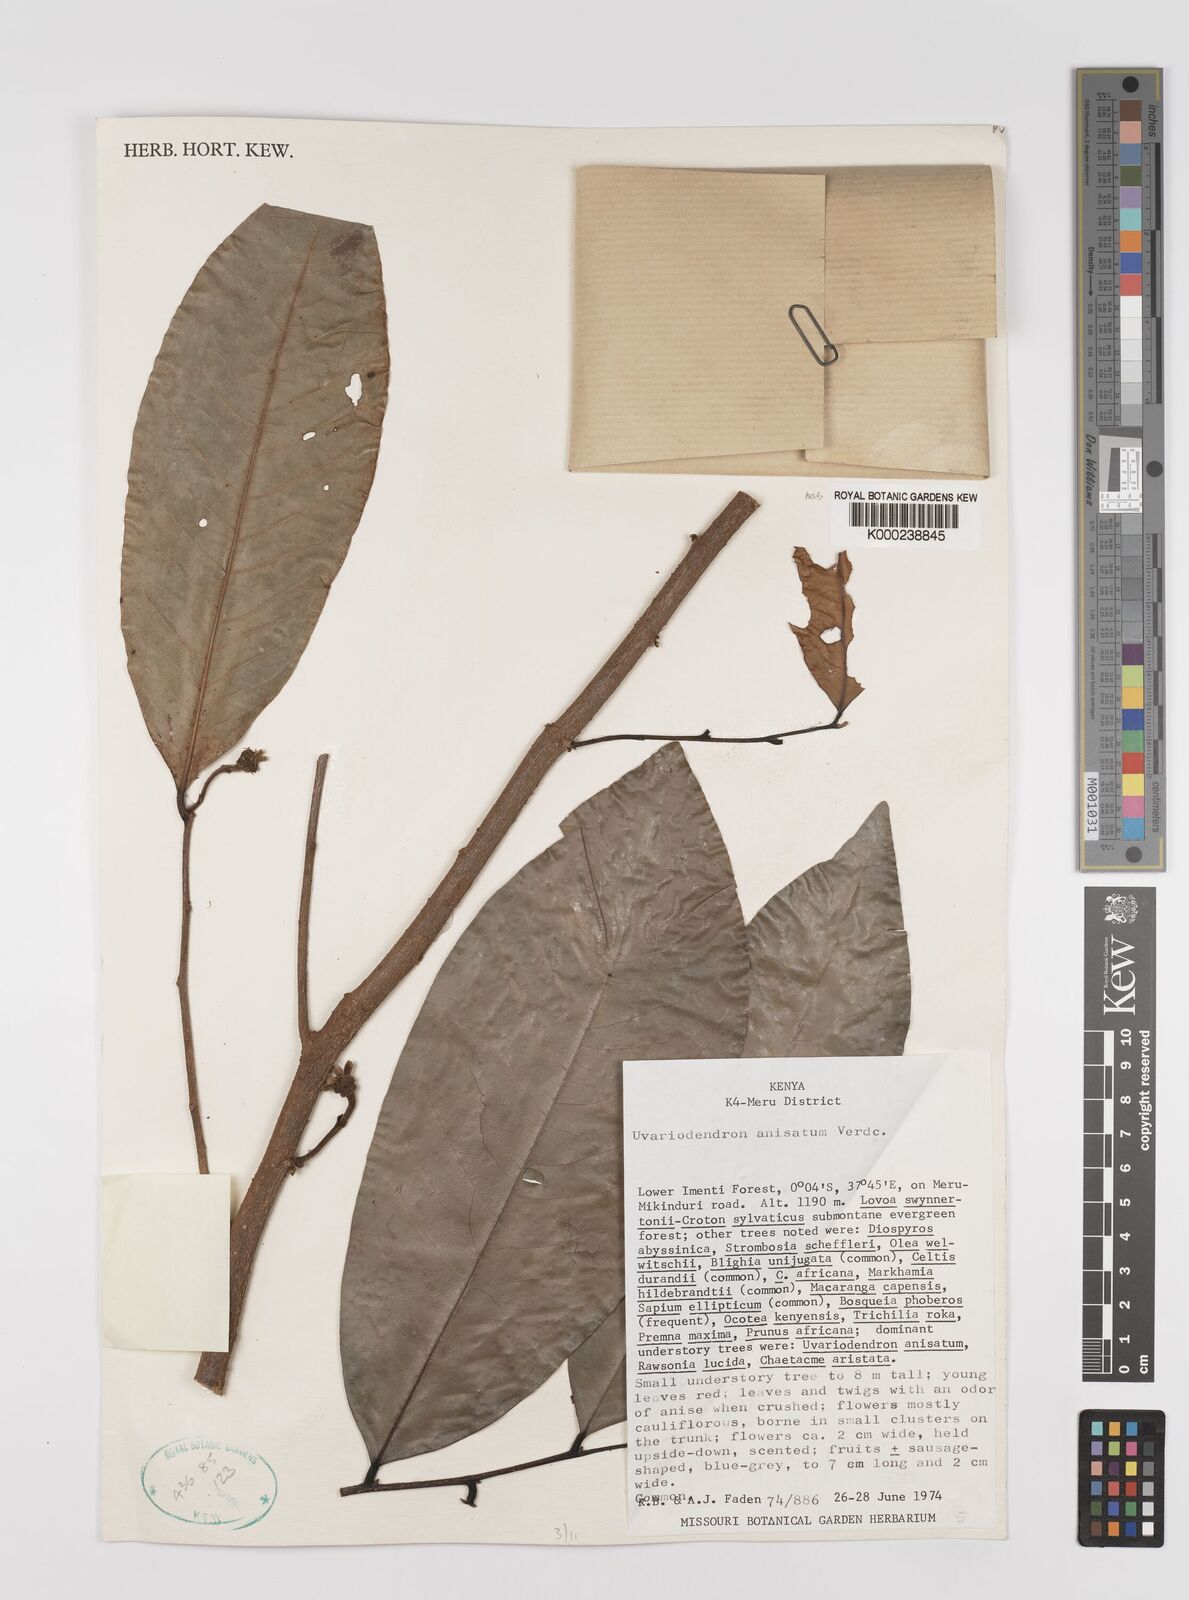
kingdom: Plantae
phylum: Tracheophyta
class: Magnoliopsida
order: Magnoliales
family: Annonaceae
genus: Uvariodendron
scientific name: Uvariodendron anisatum
